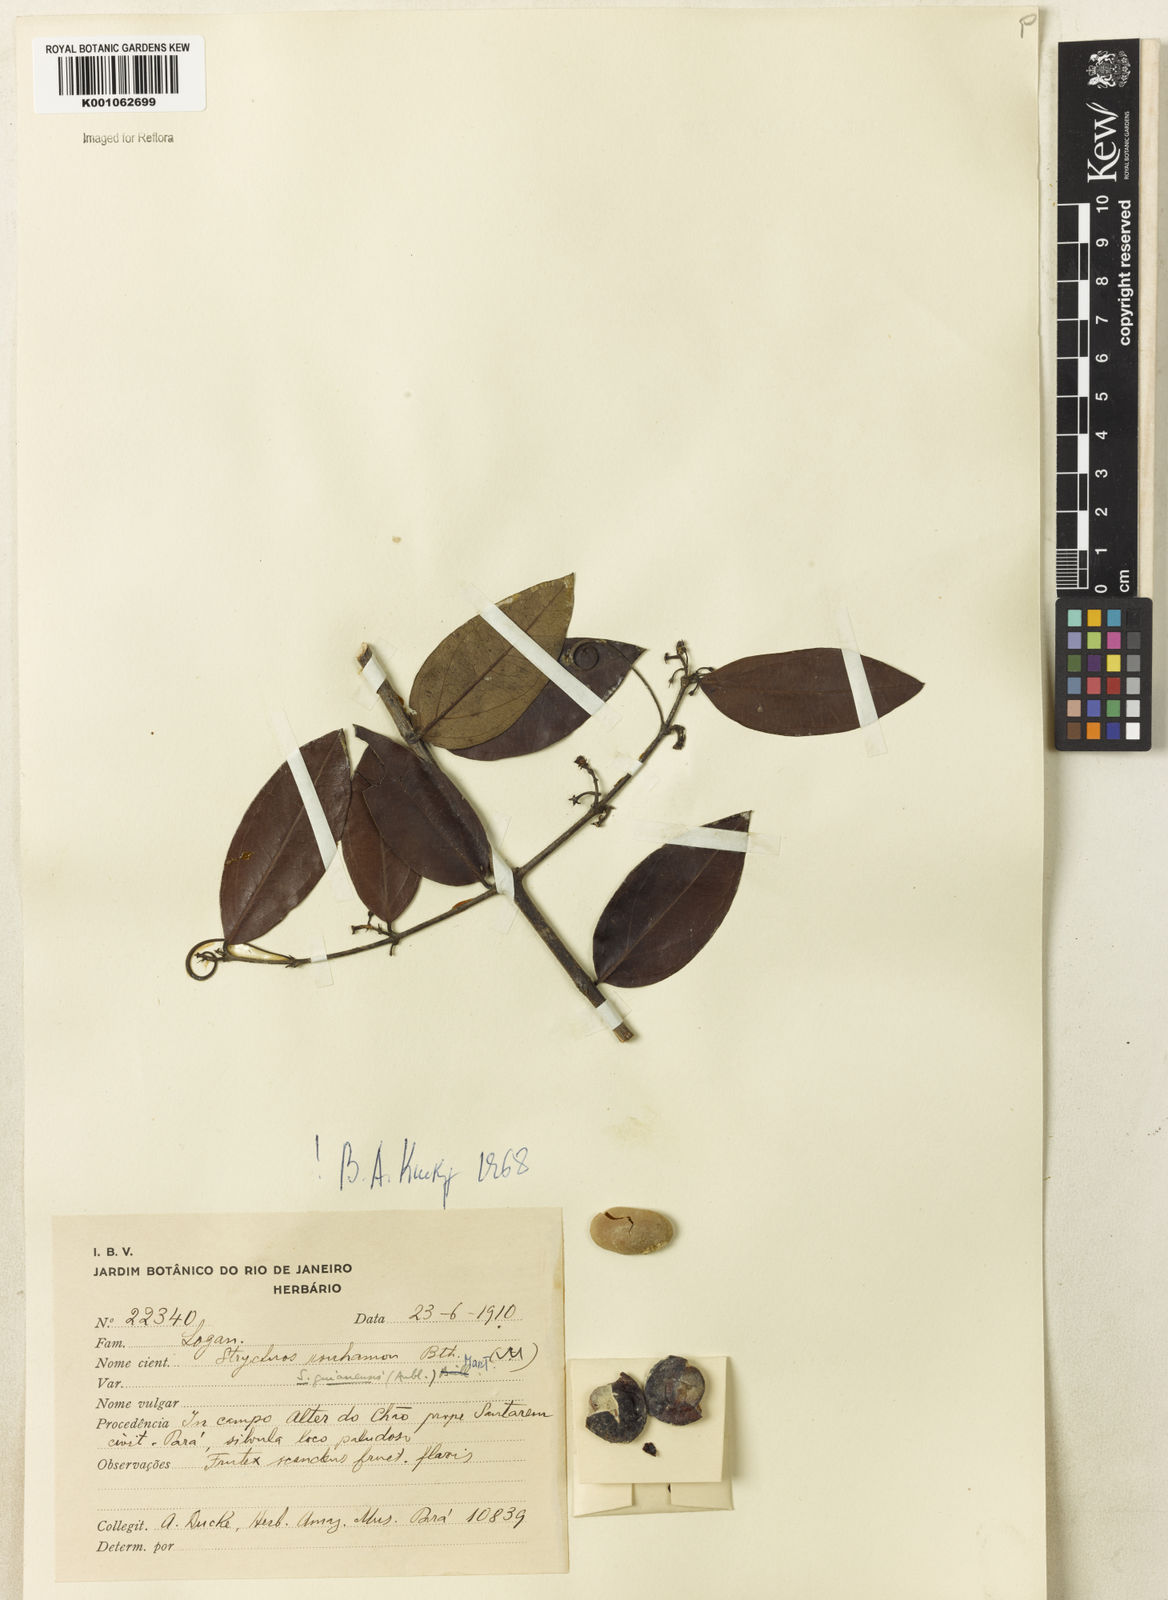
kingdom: Plantae
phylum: Tracheophyta
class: Magnoliopsida
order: Gentianales
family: Loganiaceae
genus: Strychnos
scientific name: Strychnos guianensis
